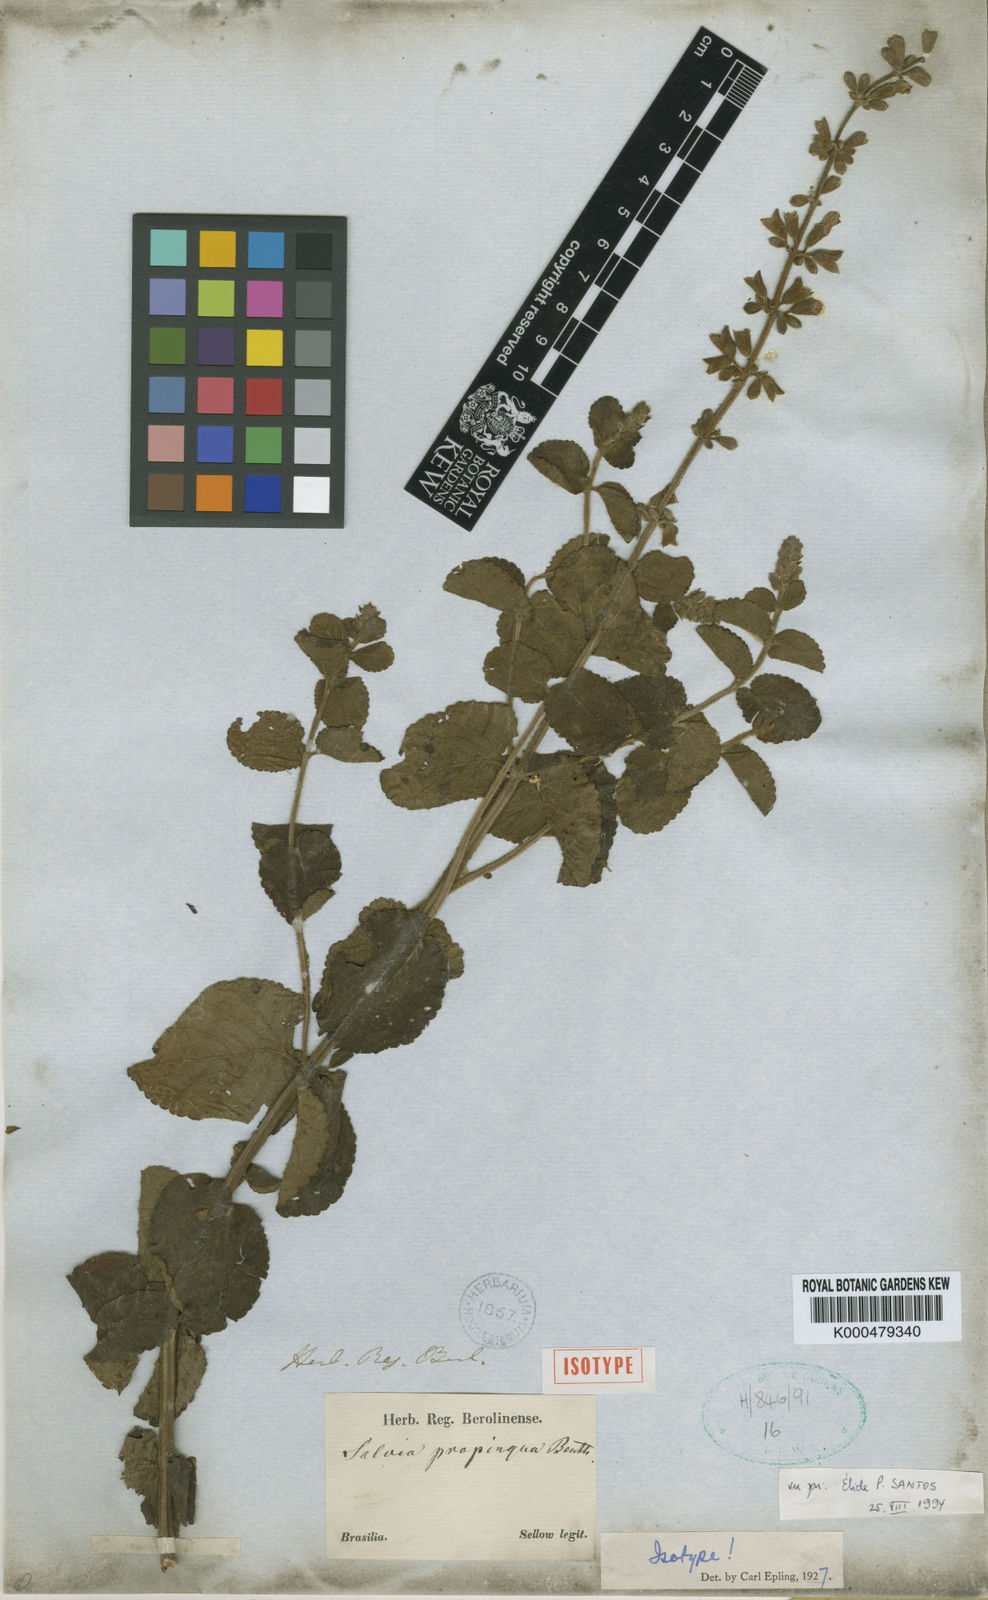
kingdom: Plantae
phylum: Tracheophyta
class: Magnoliopsida
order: Lamiales
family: Lamiaceae
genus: Salvia
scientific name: Salvia propinqua
